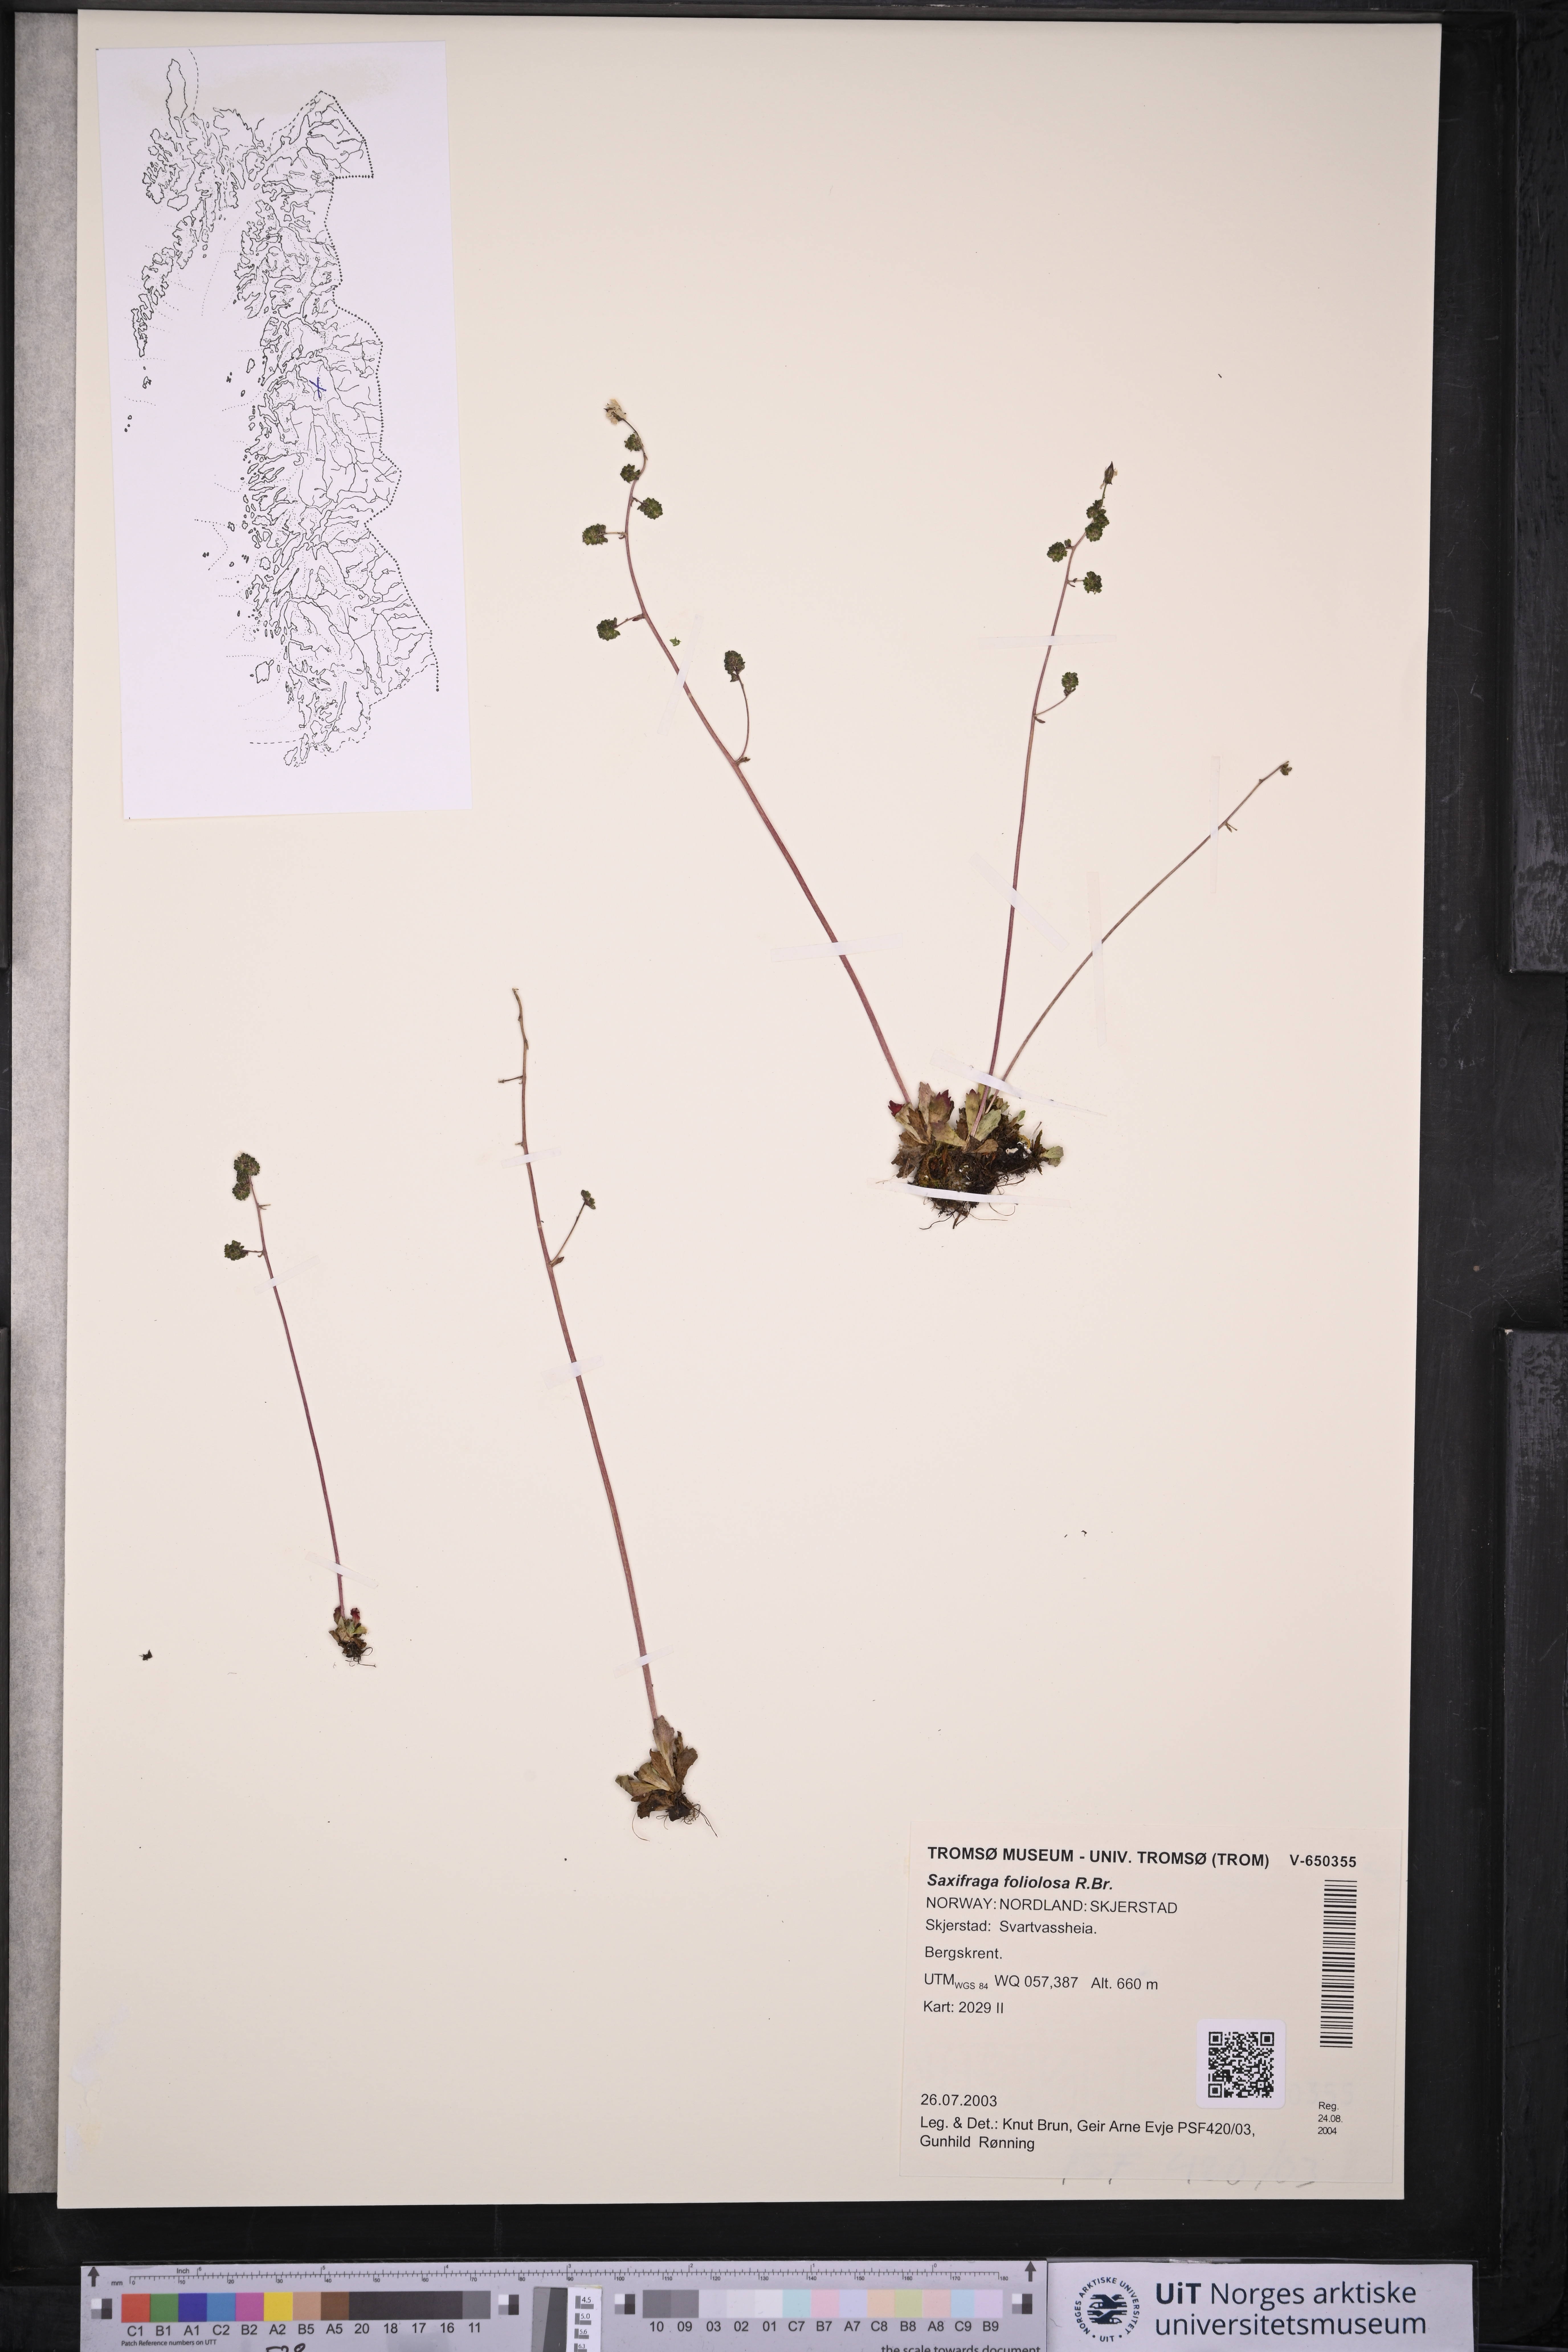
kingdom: Plantae
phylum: Tracheophyta
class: Magnoliopsida
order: Saxifragales
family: Saxifragaceae
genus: Micranthes
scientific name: Micranthes foliolosa
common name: Leafystem saxifrage
